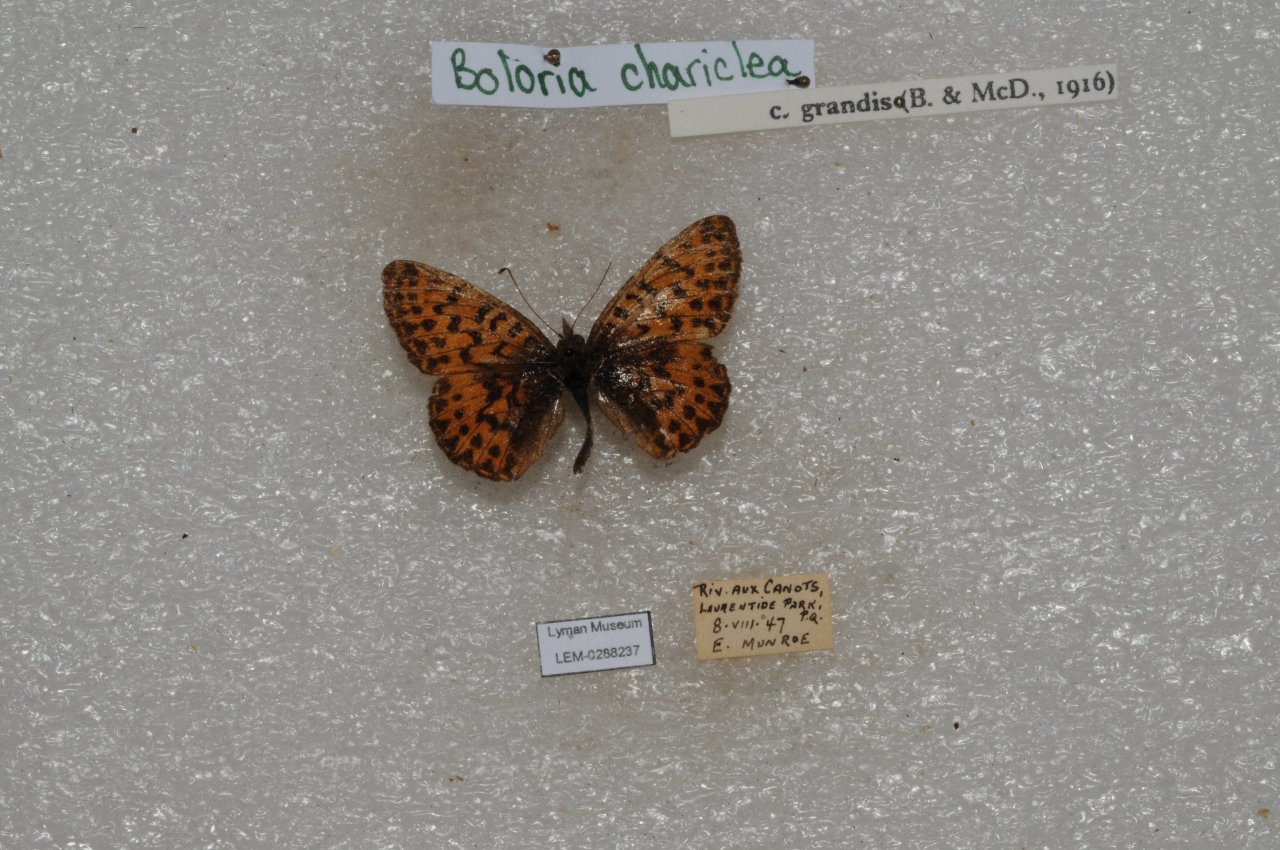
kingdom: Animalia
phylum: Arthropoda
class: Insecta
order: Lepidoptera
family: Nymphalidae
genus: Boloria
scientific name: Boloria chariclea
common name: Arctic Fritillary
